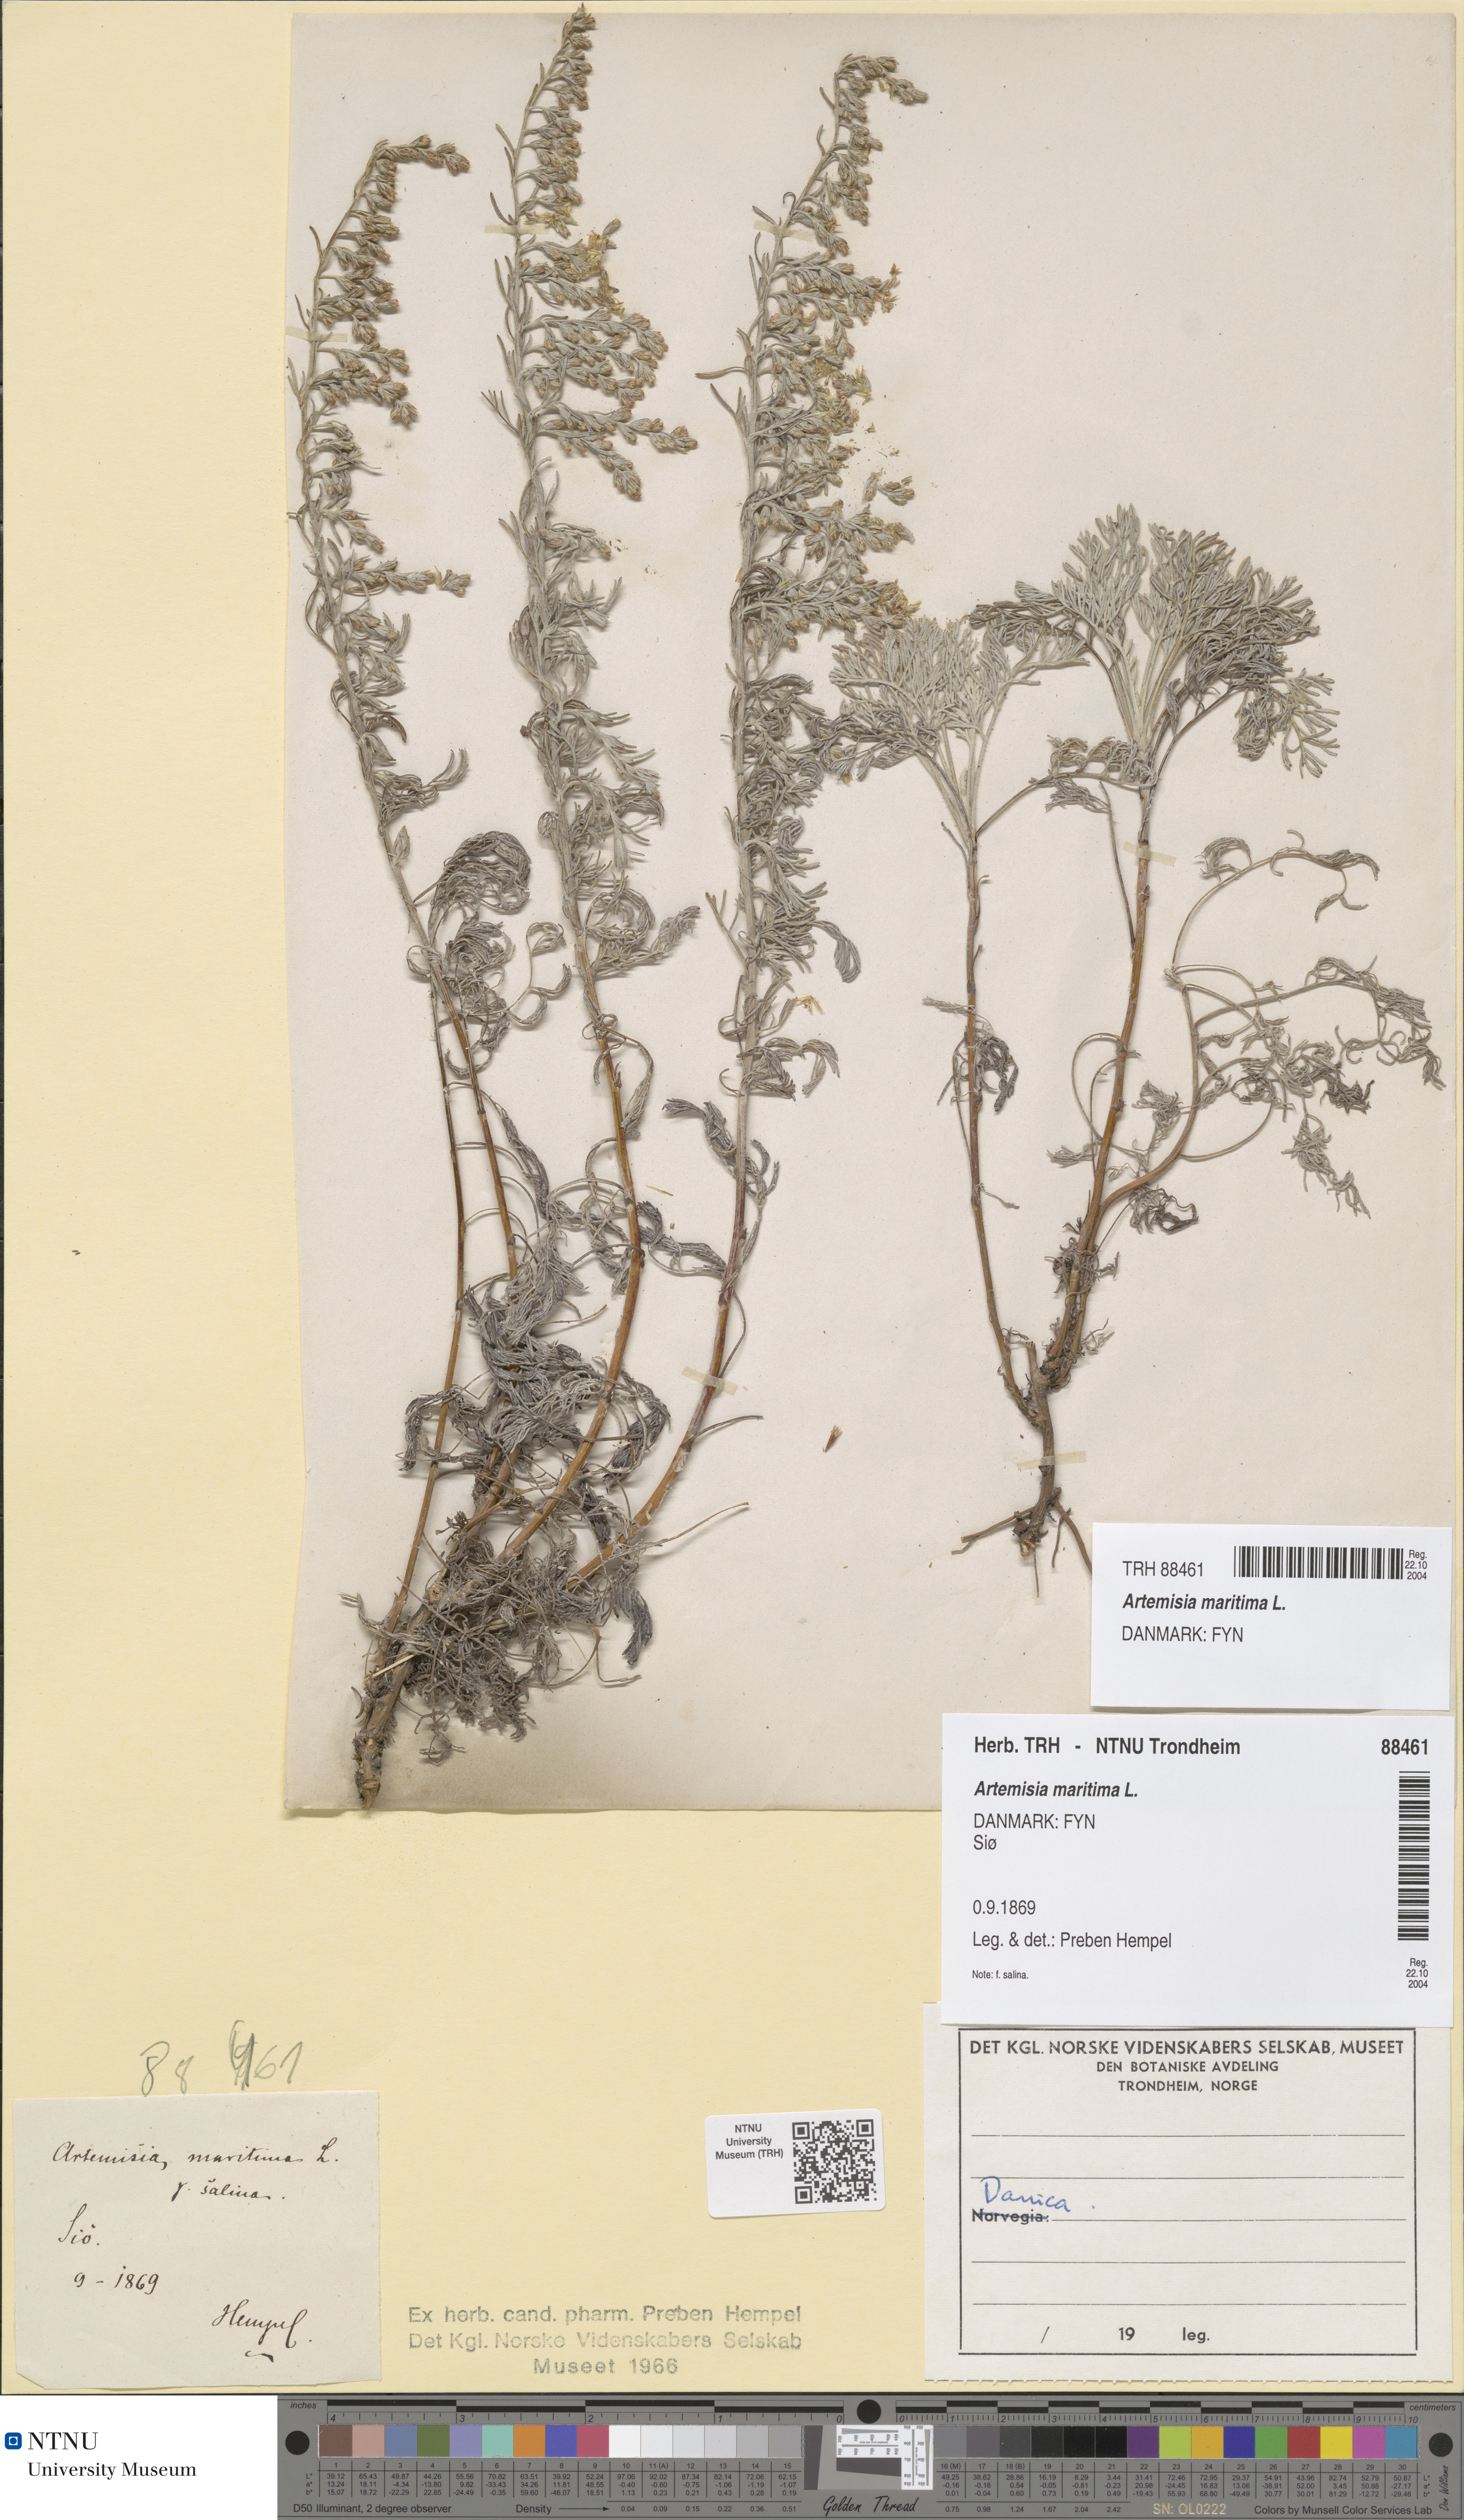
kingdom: Plantae
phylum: Tracheophyta
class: Magnoliopsida
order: Asterales
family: Asteraceae
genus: Artemisia
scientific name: Artemisia maritima
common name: Wormseed
